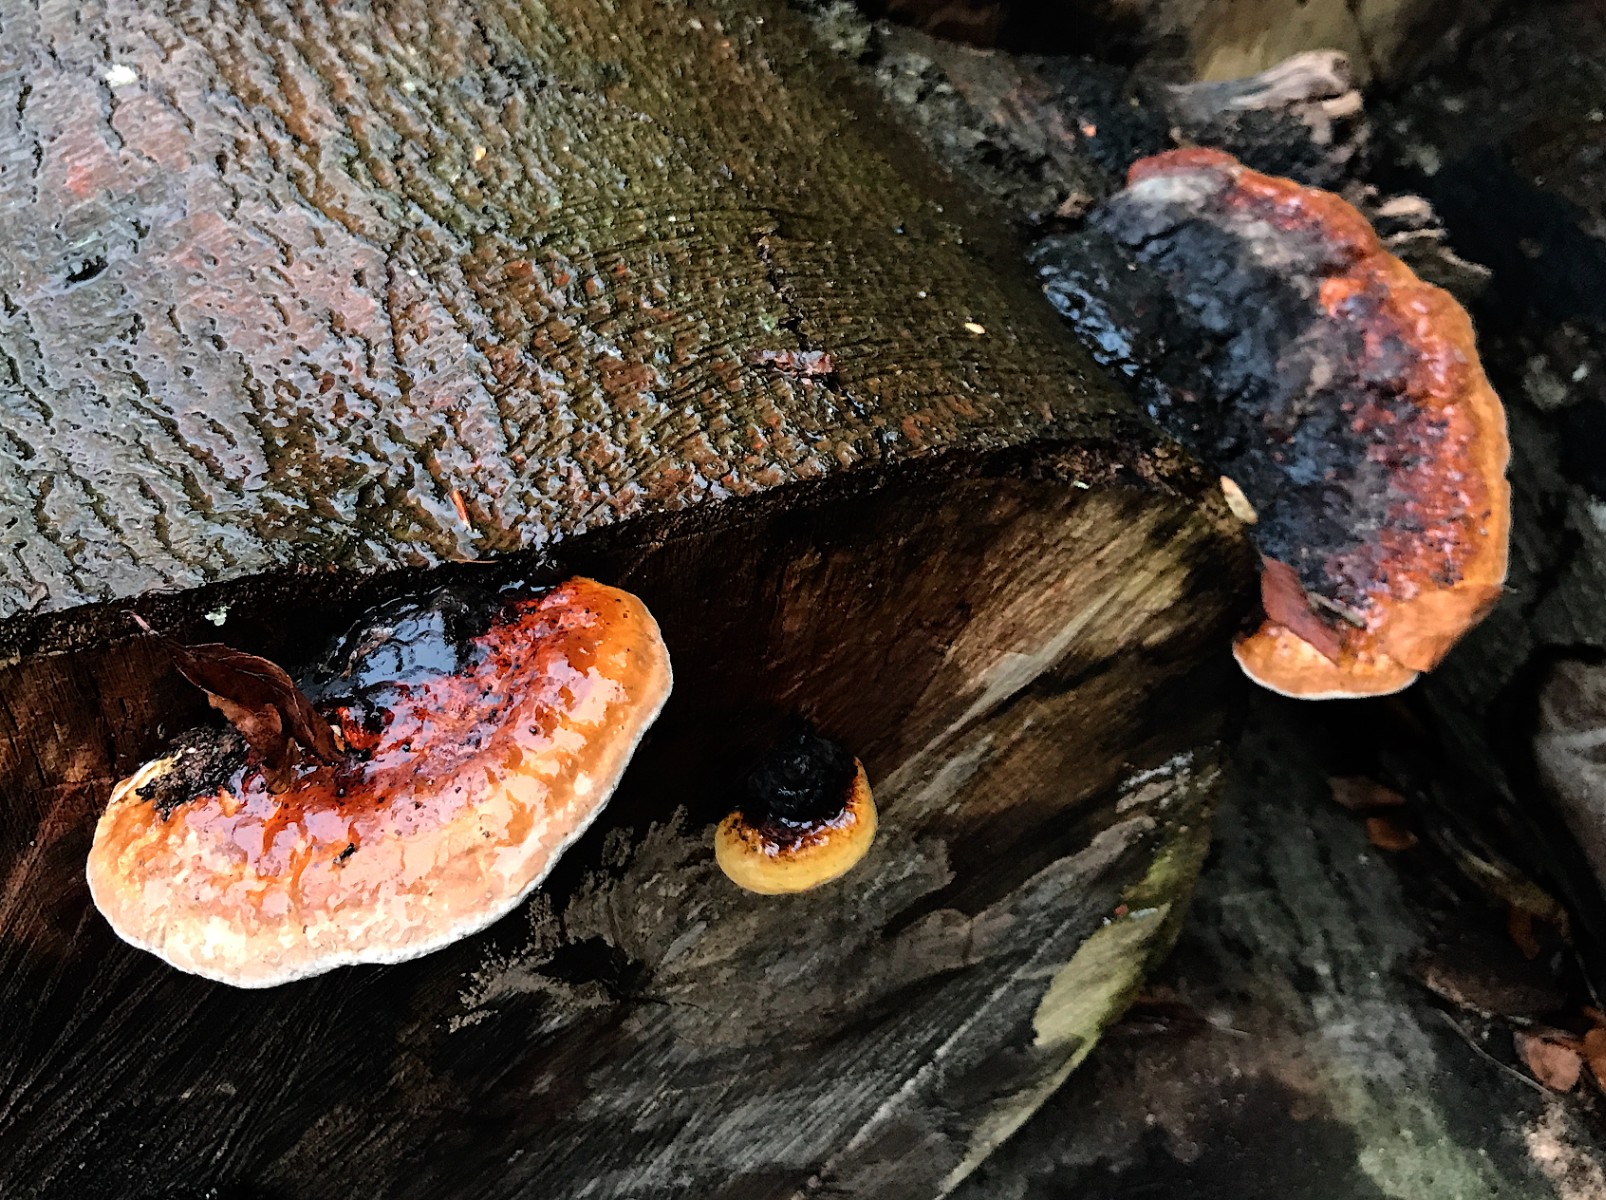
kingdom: Fungi
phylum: Basidiomycota
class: Agaricomycetes
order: Polyporales
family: Fomitopsidaceae
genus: Fomitopsis
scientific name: Fomitopsis pinicola
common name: randbæltet hovporesvamp
